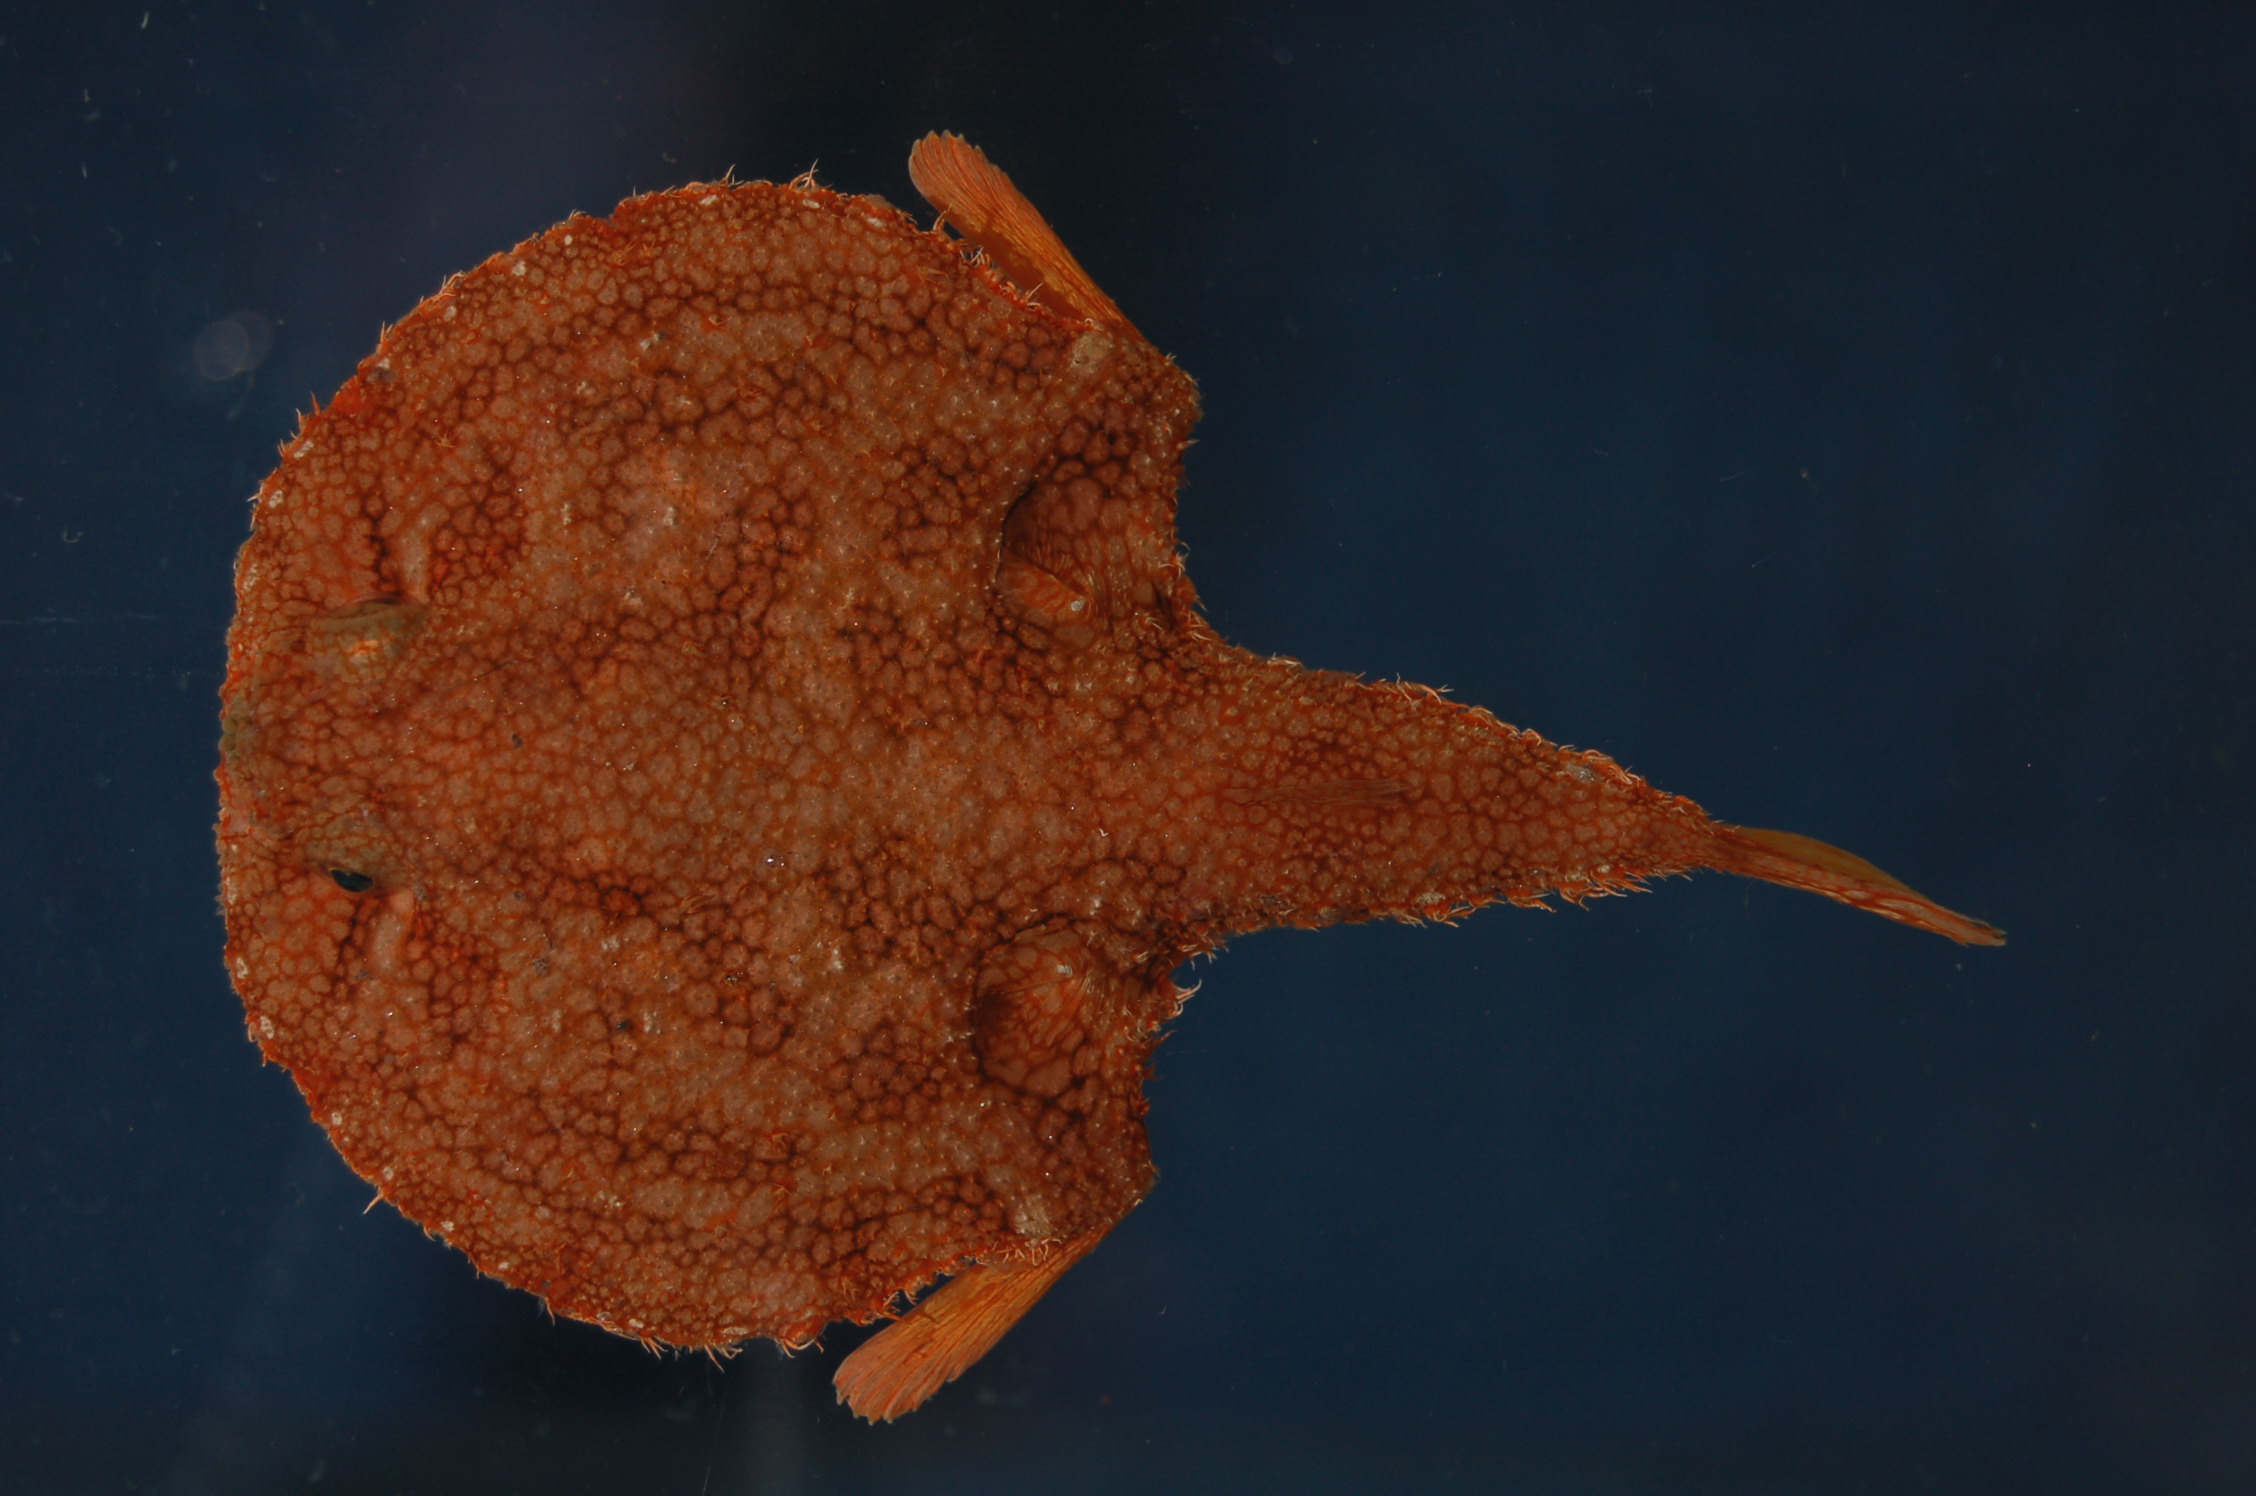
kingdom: Animalia
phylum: Chordata
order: Lophiiformes
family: Ogcocephalidae
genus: Halieutaea
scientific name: Halieutaea hancocki
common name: Hairy seabat
